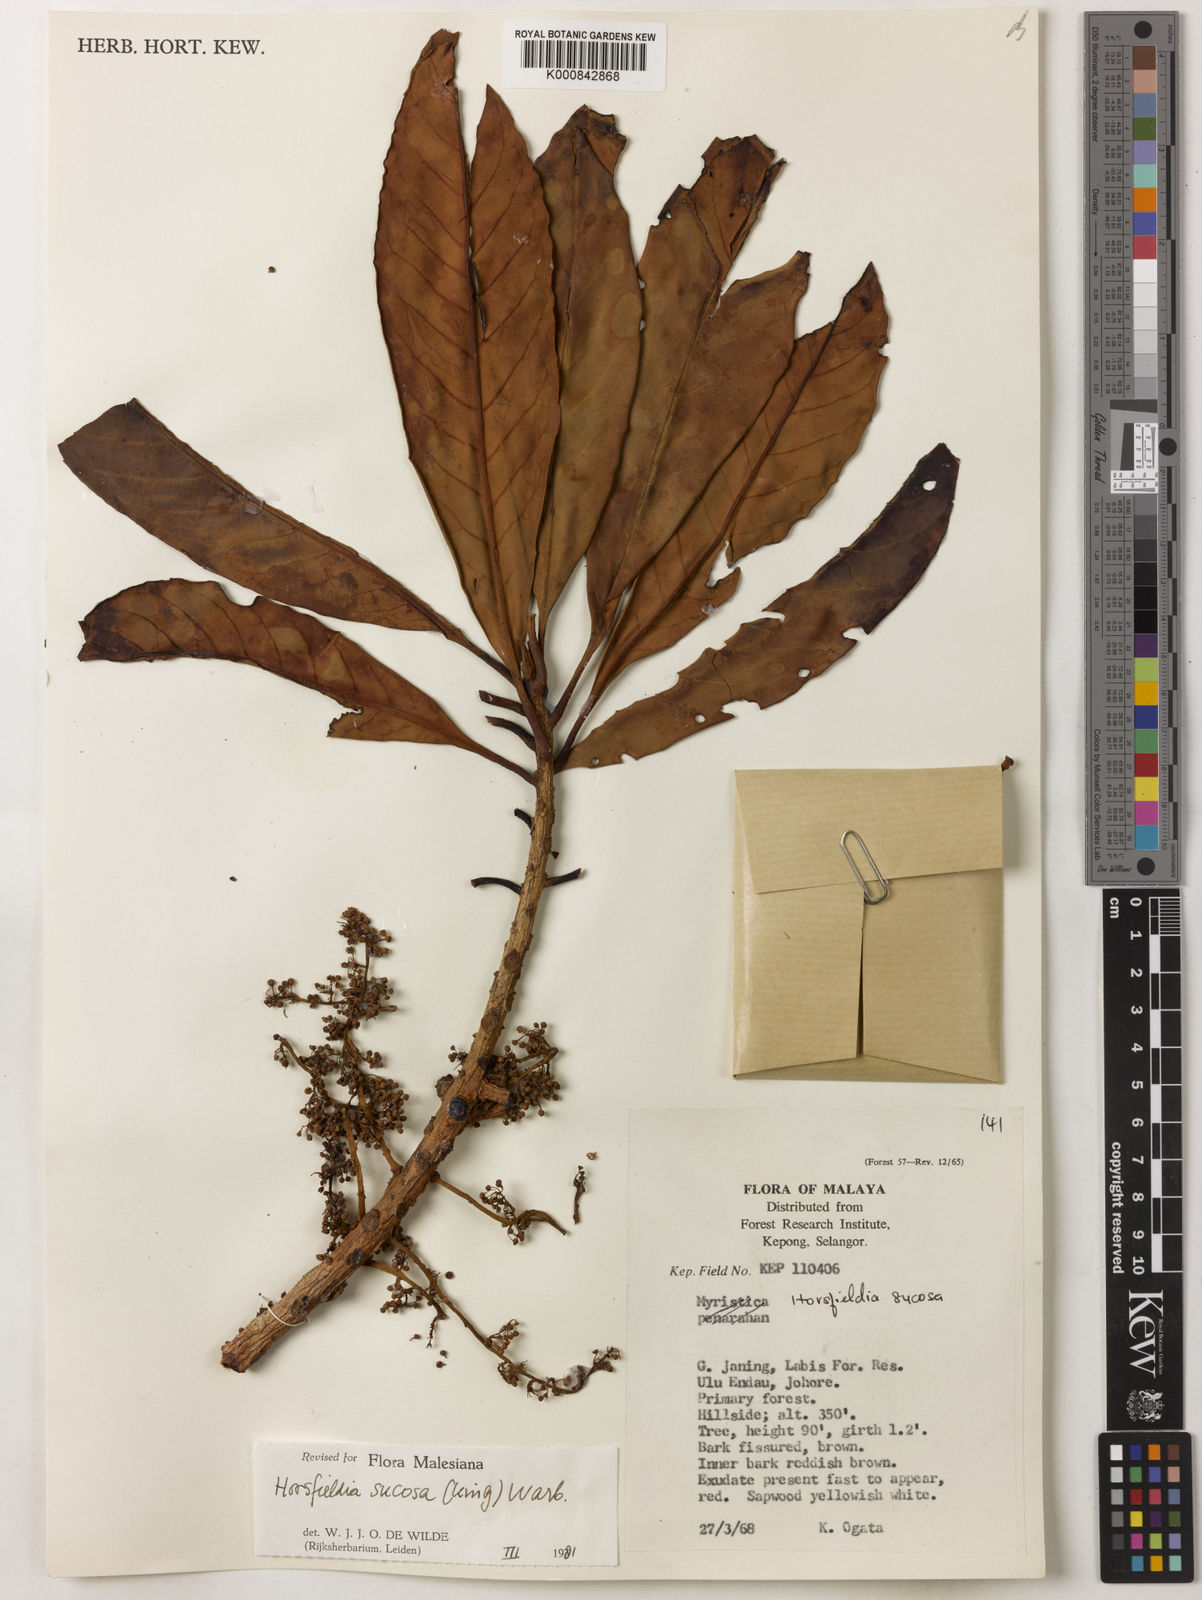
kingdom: Plantae
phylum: Tracheophyta
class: Magnoliopsida
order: Magnoliales
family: Myristicaceae
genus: Horsfieldia
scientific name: Horsfieldia sucosa
